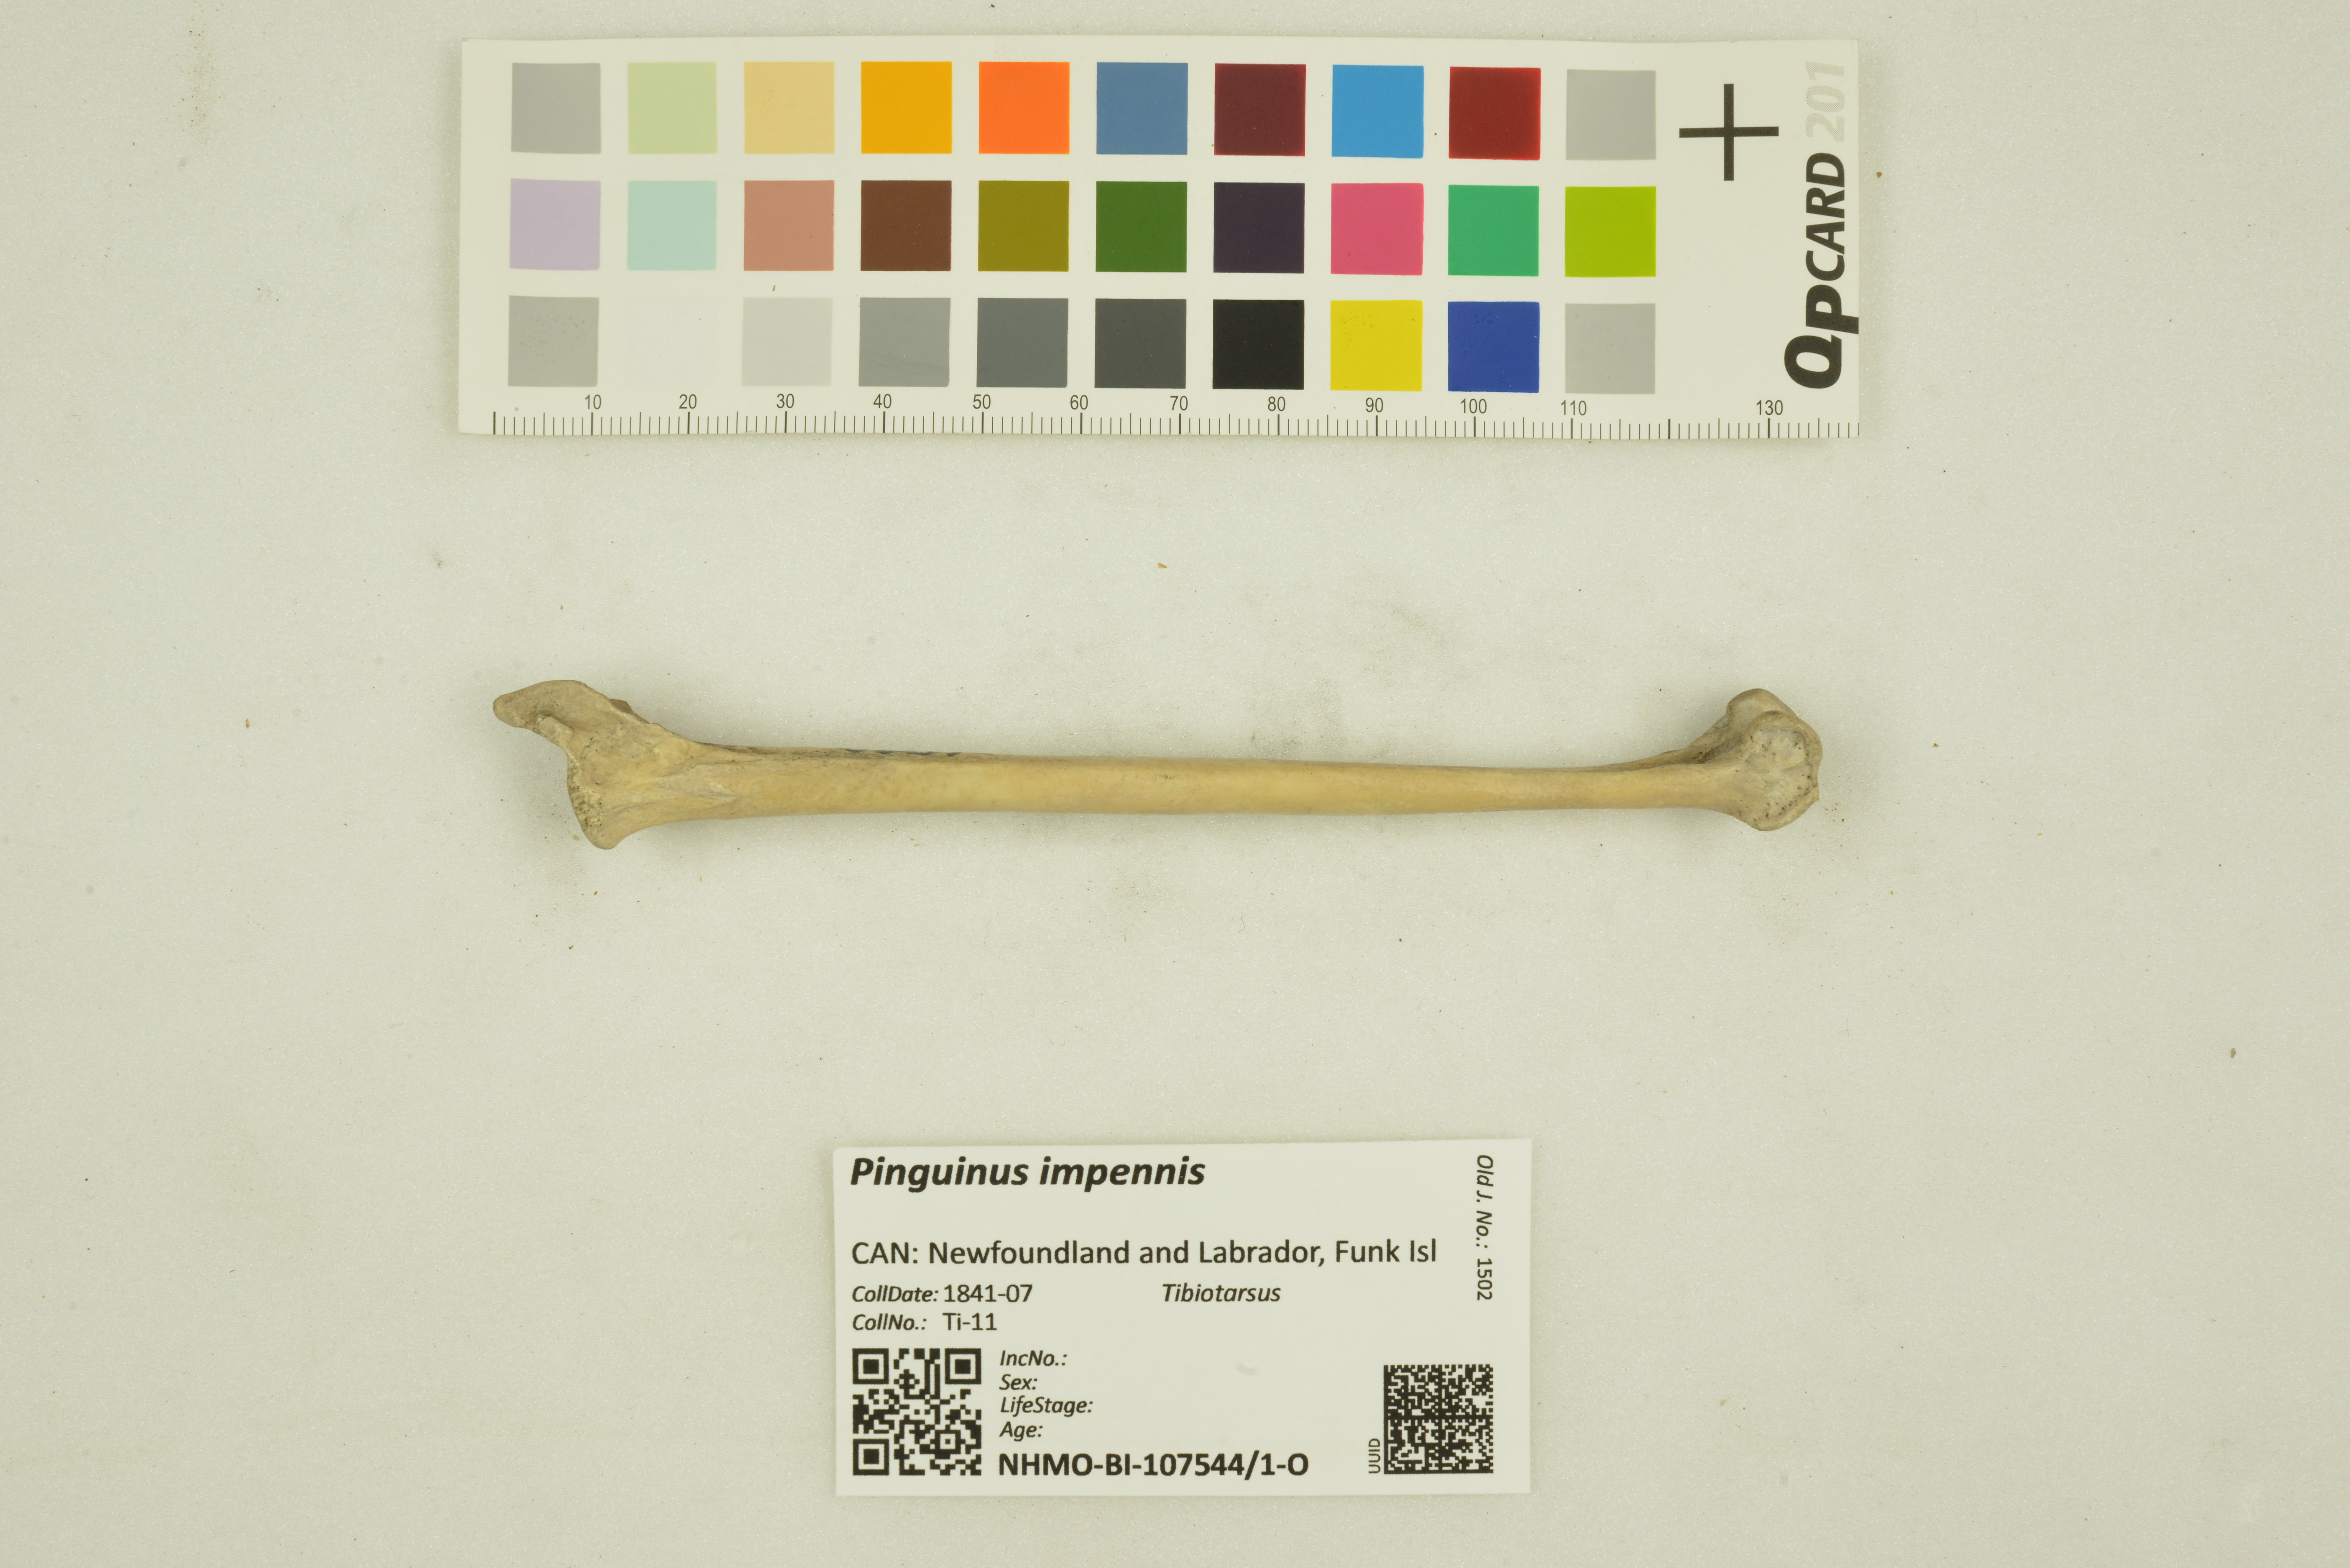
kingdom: Animalia
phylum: Chordata
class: Aves
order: Charadriiformes
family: Alcidae
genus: Pinguinus
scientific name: Pinguinus impennis
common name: Great auk
